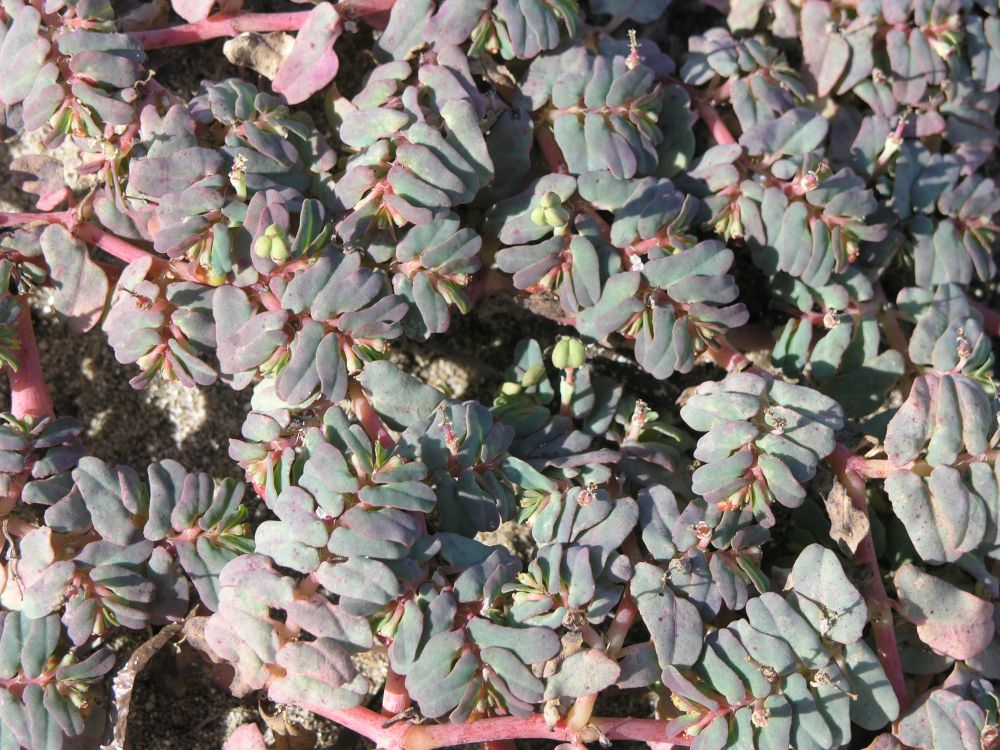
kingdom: Plantae
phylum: Tracheophyta
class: Magnoliopsida
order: Malpighiales
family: Euphorbiaceae
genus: Euphorbia
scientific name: Euphorbia peplis
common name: Purple spurge
